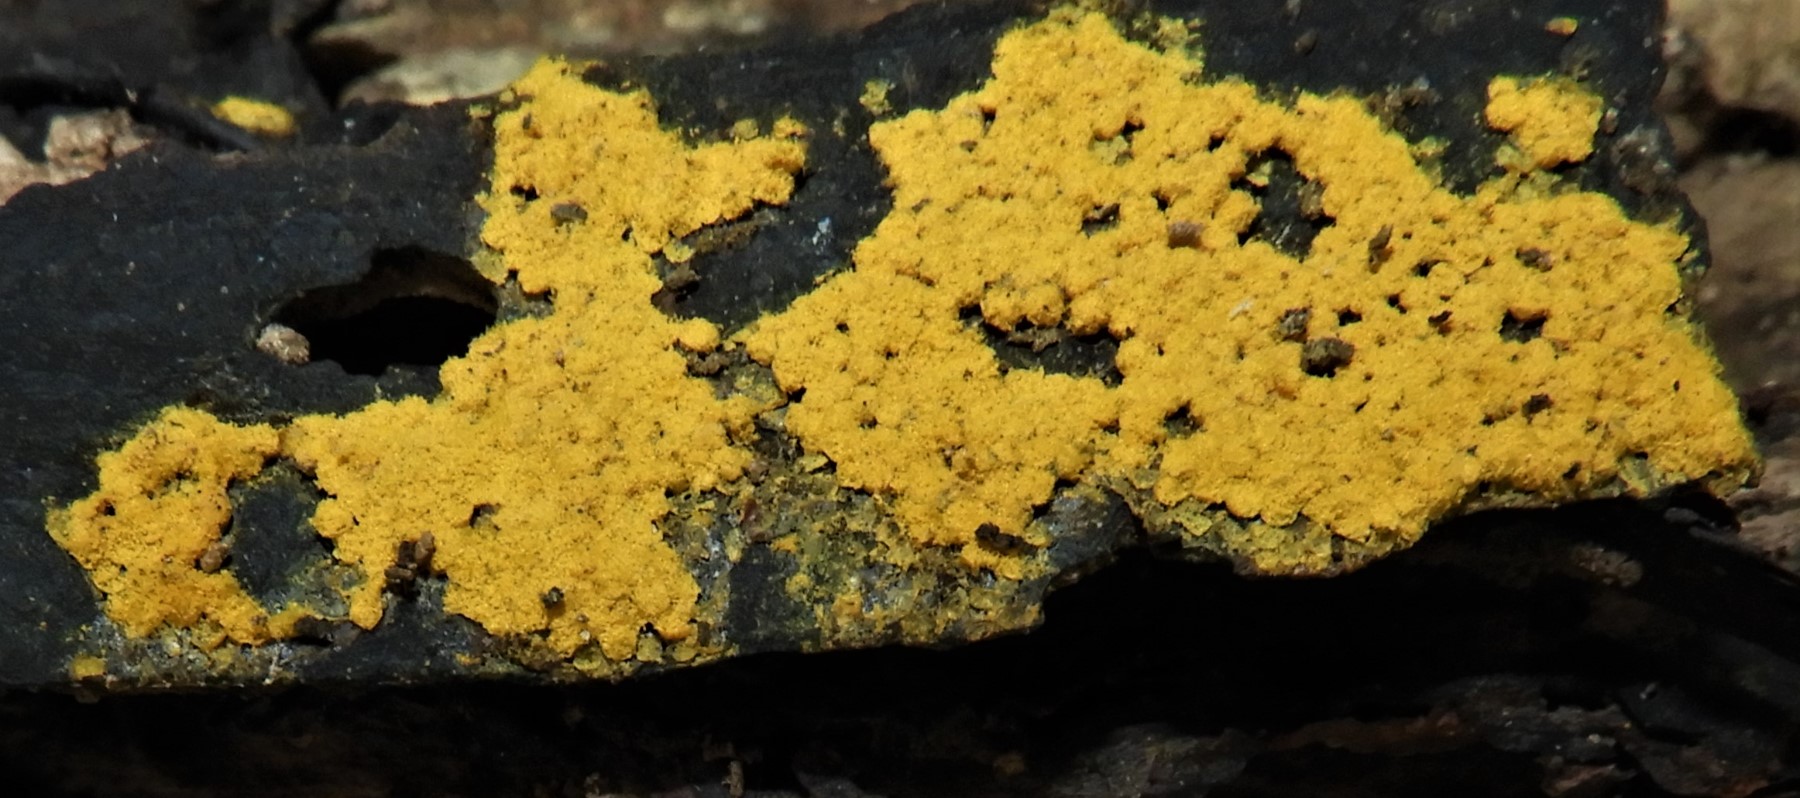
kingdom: Protozoa
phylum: Mycetozoa
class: Myxomycetes
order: Trichiales
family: Trichiaceae
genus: Trichia
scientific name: Trichia
